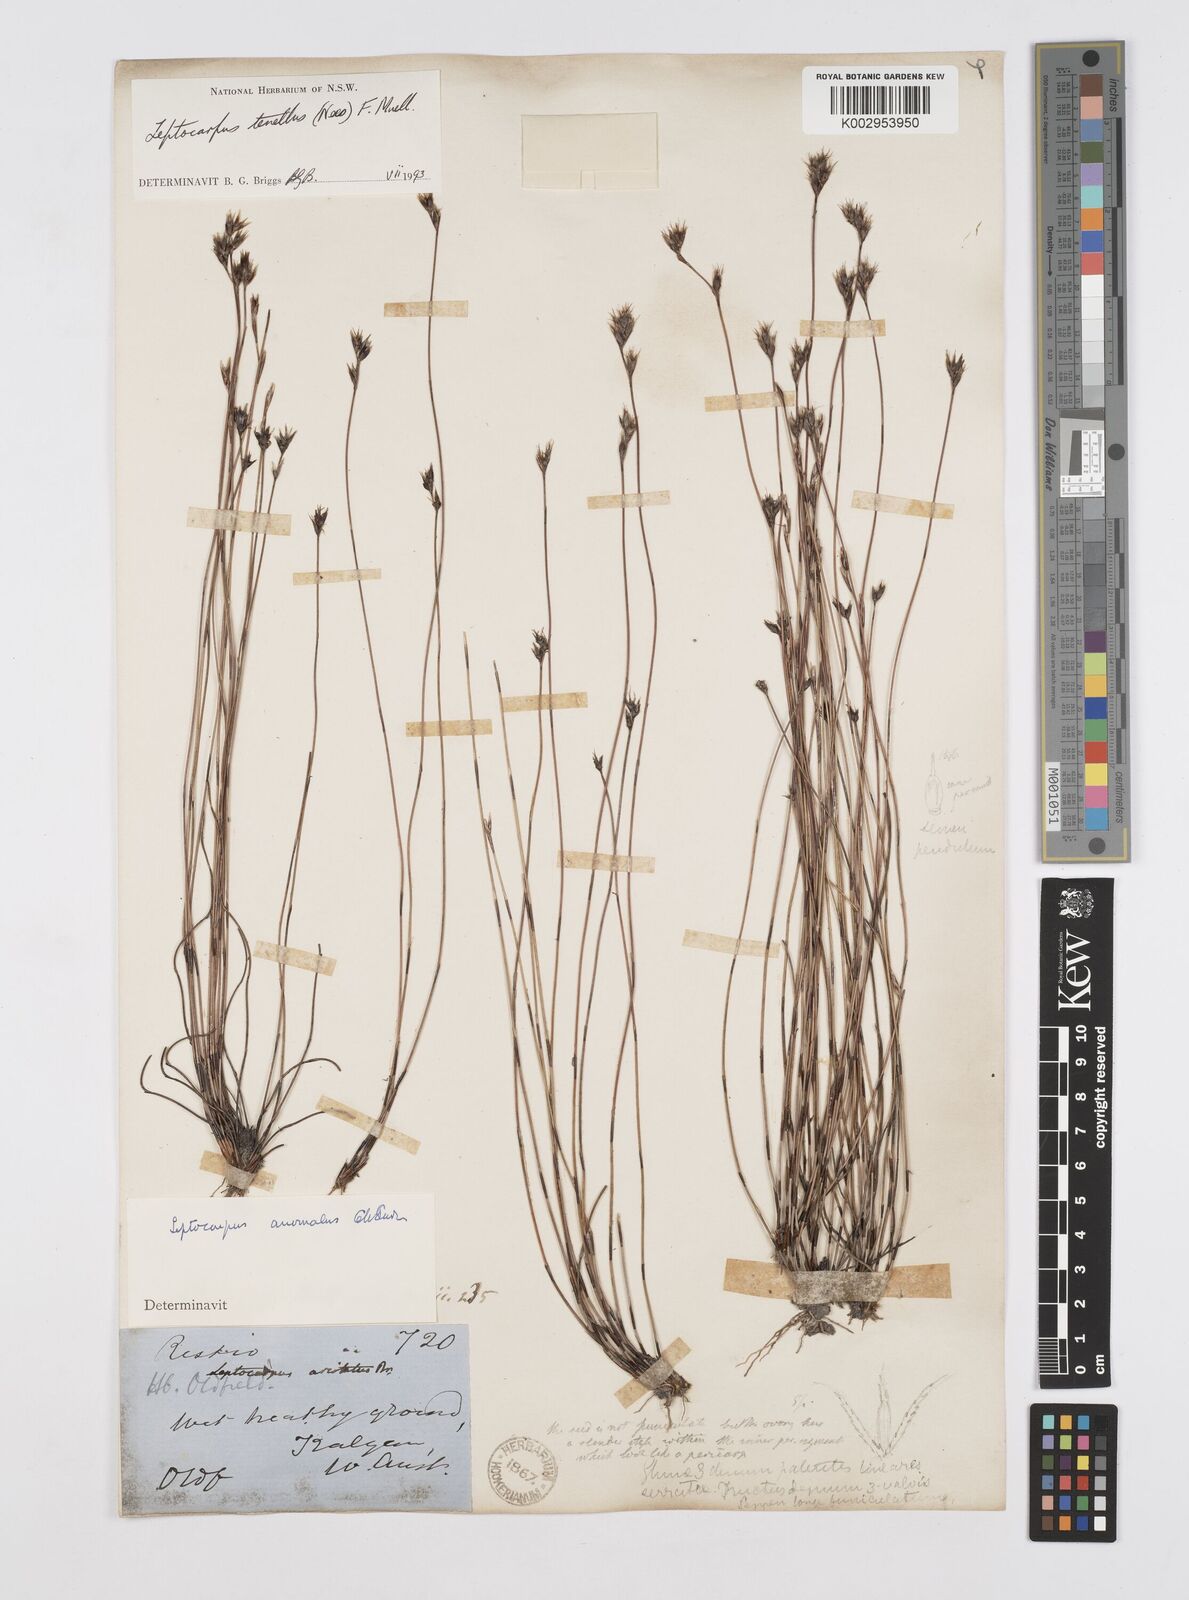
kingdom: Plantae
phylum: Tracheophyta
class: Liliopsida
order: Poales
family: Restionaceae
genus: Chaetanthus
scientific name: Chaetanthus tenellus
